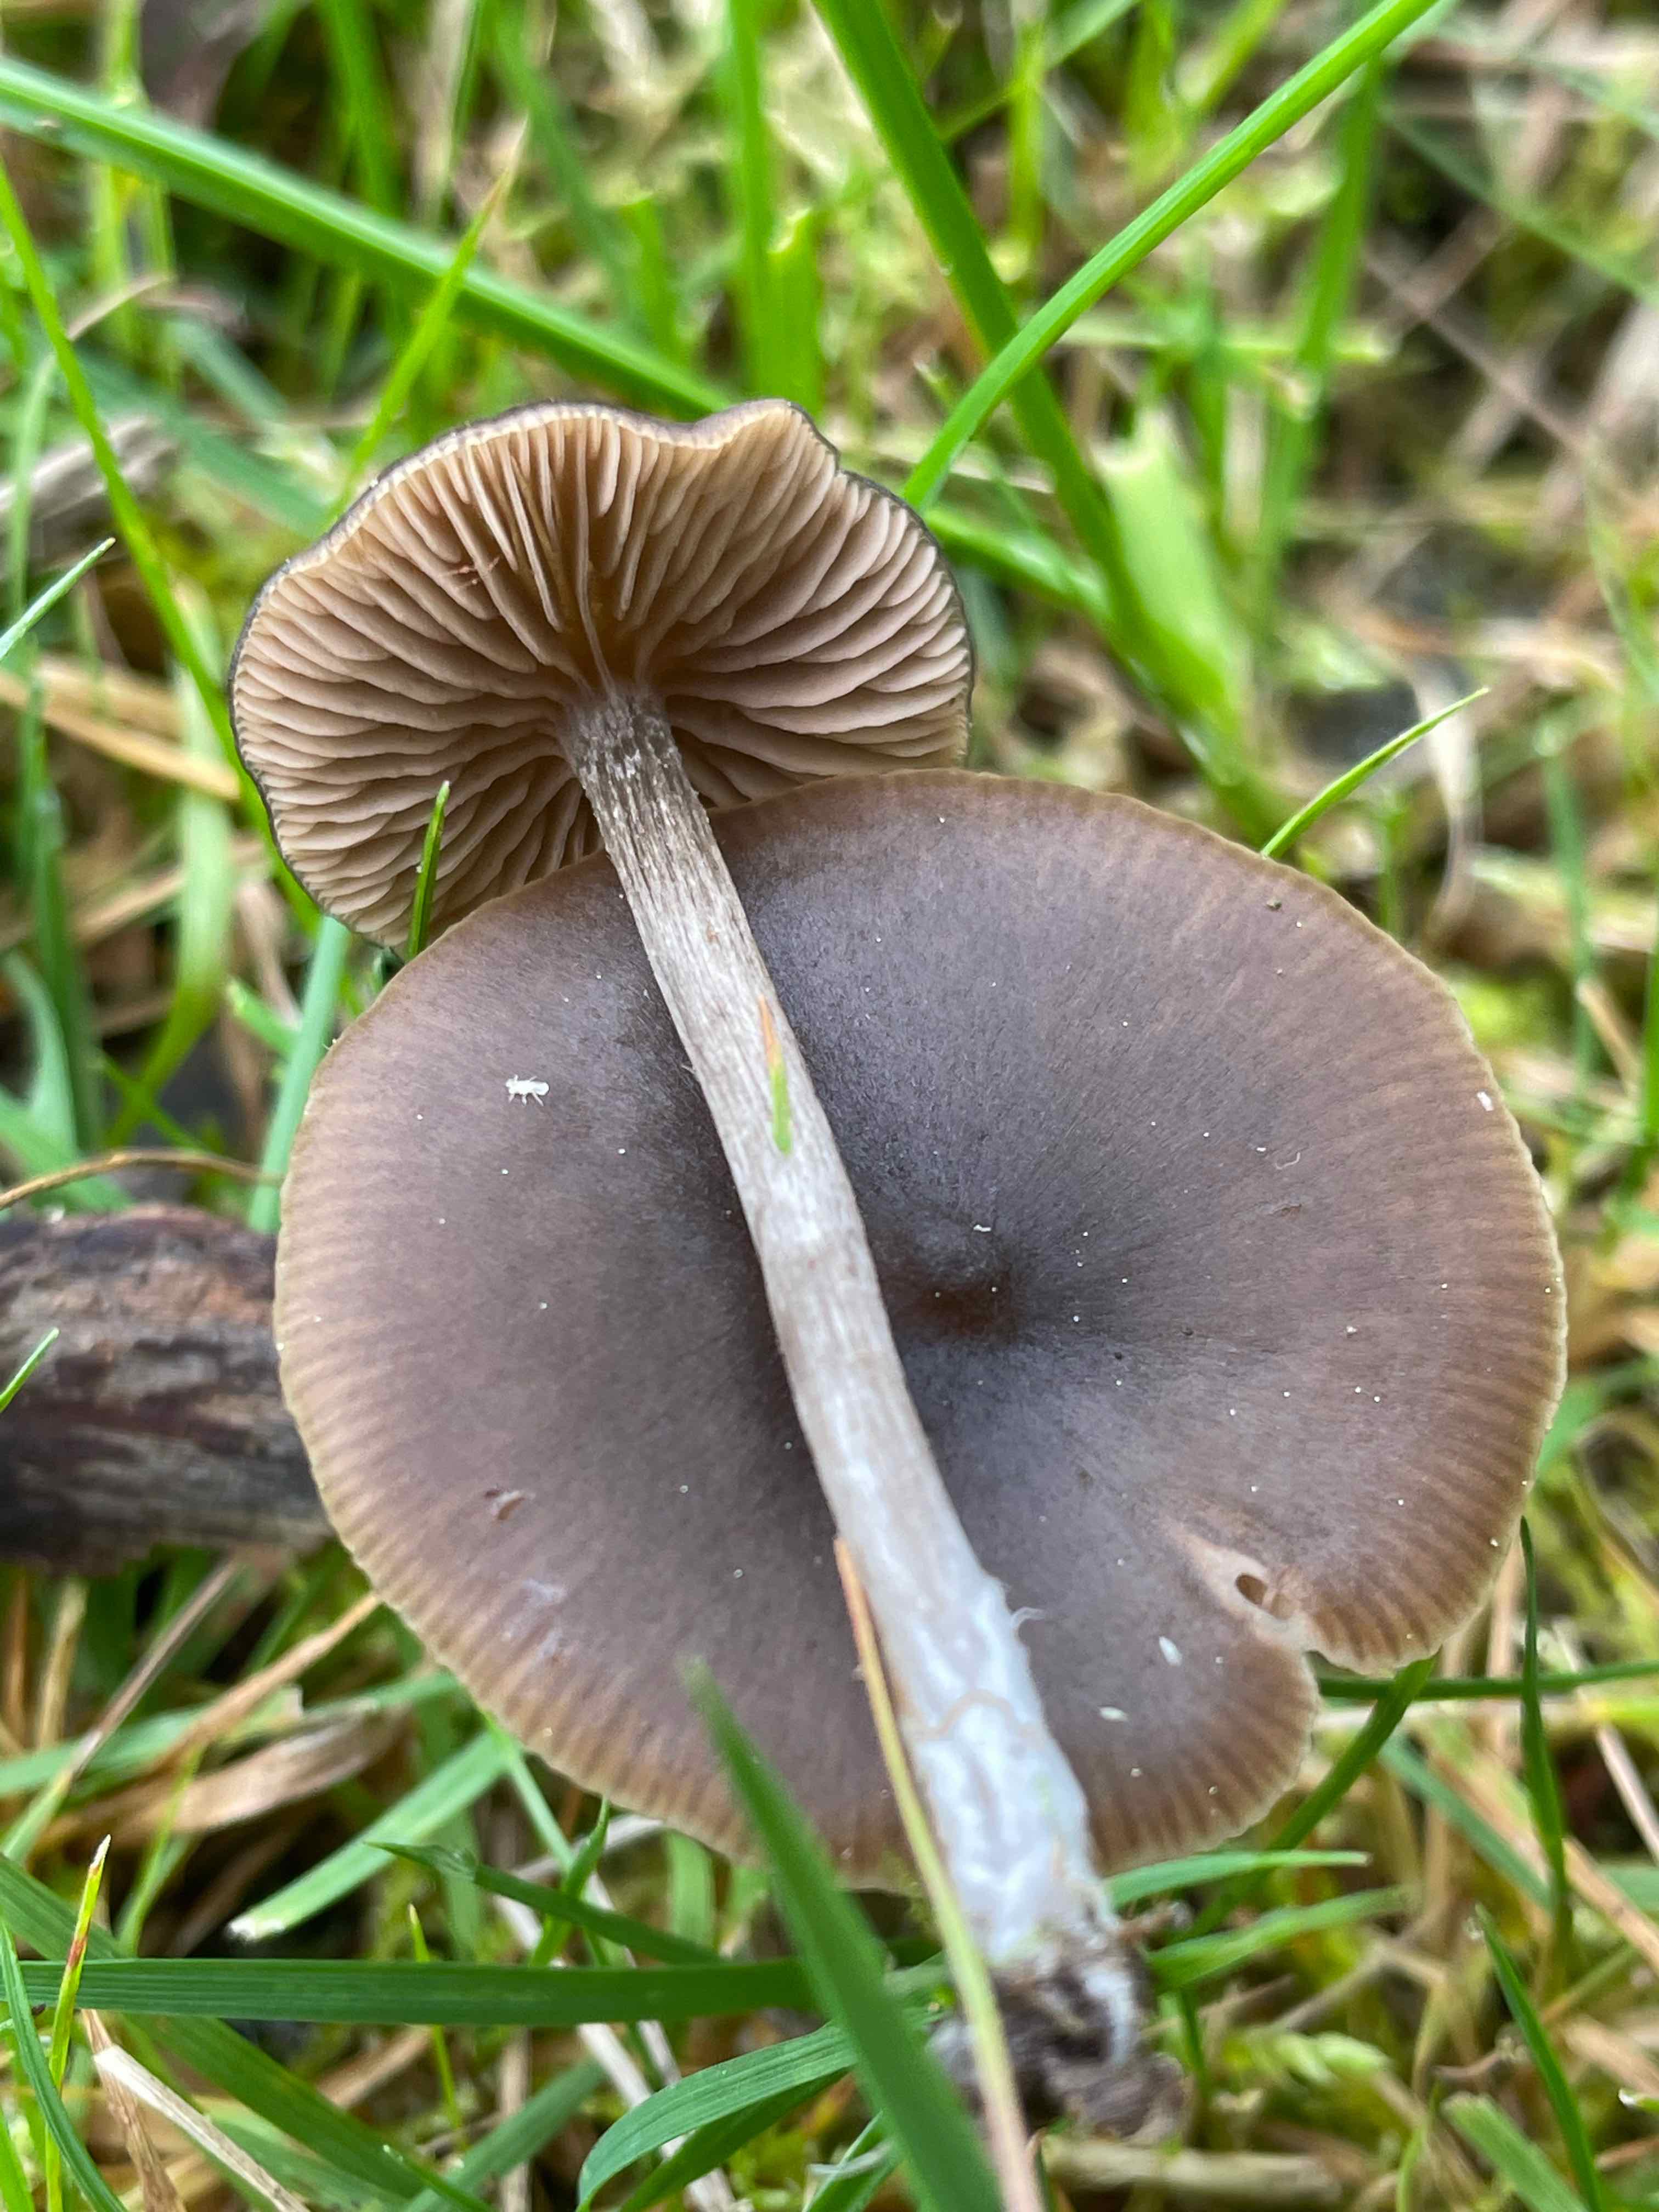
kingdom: Fungi
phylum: Basidiomycota
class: Agaricomycetes
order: Agaricales
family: Entolomataceae
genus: Entoloma
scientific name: Entoloma
